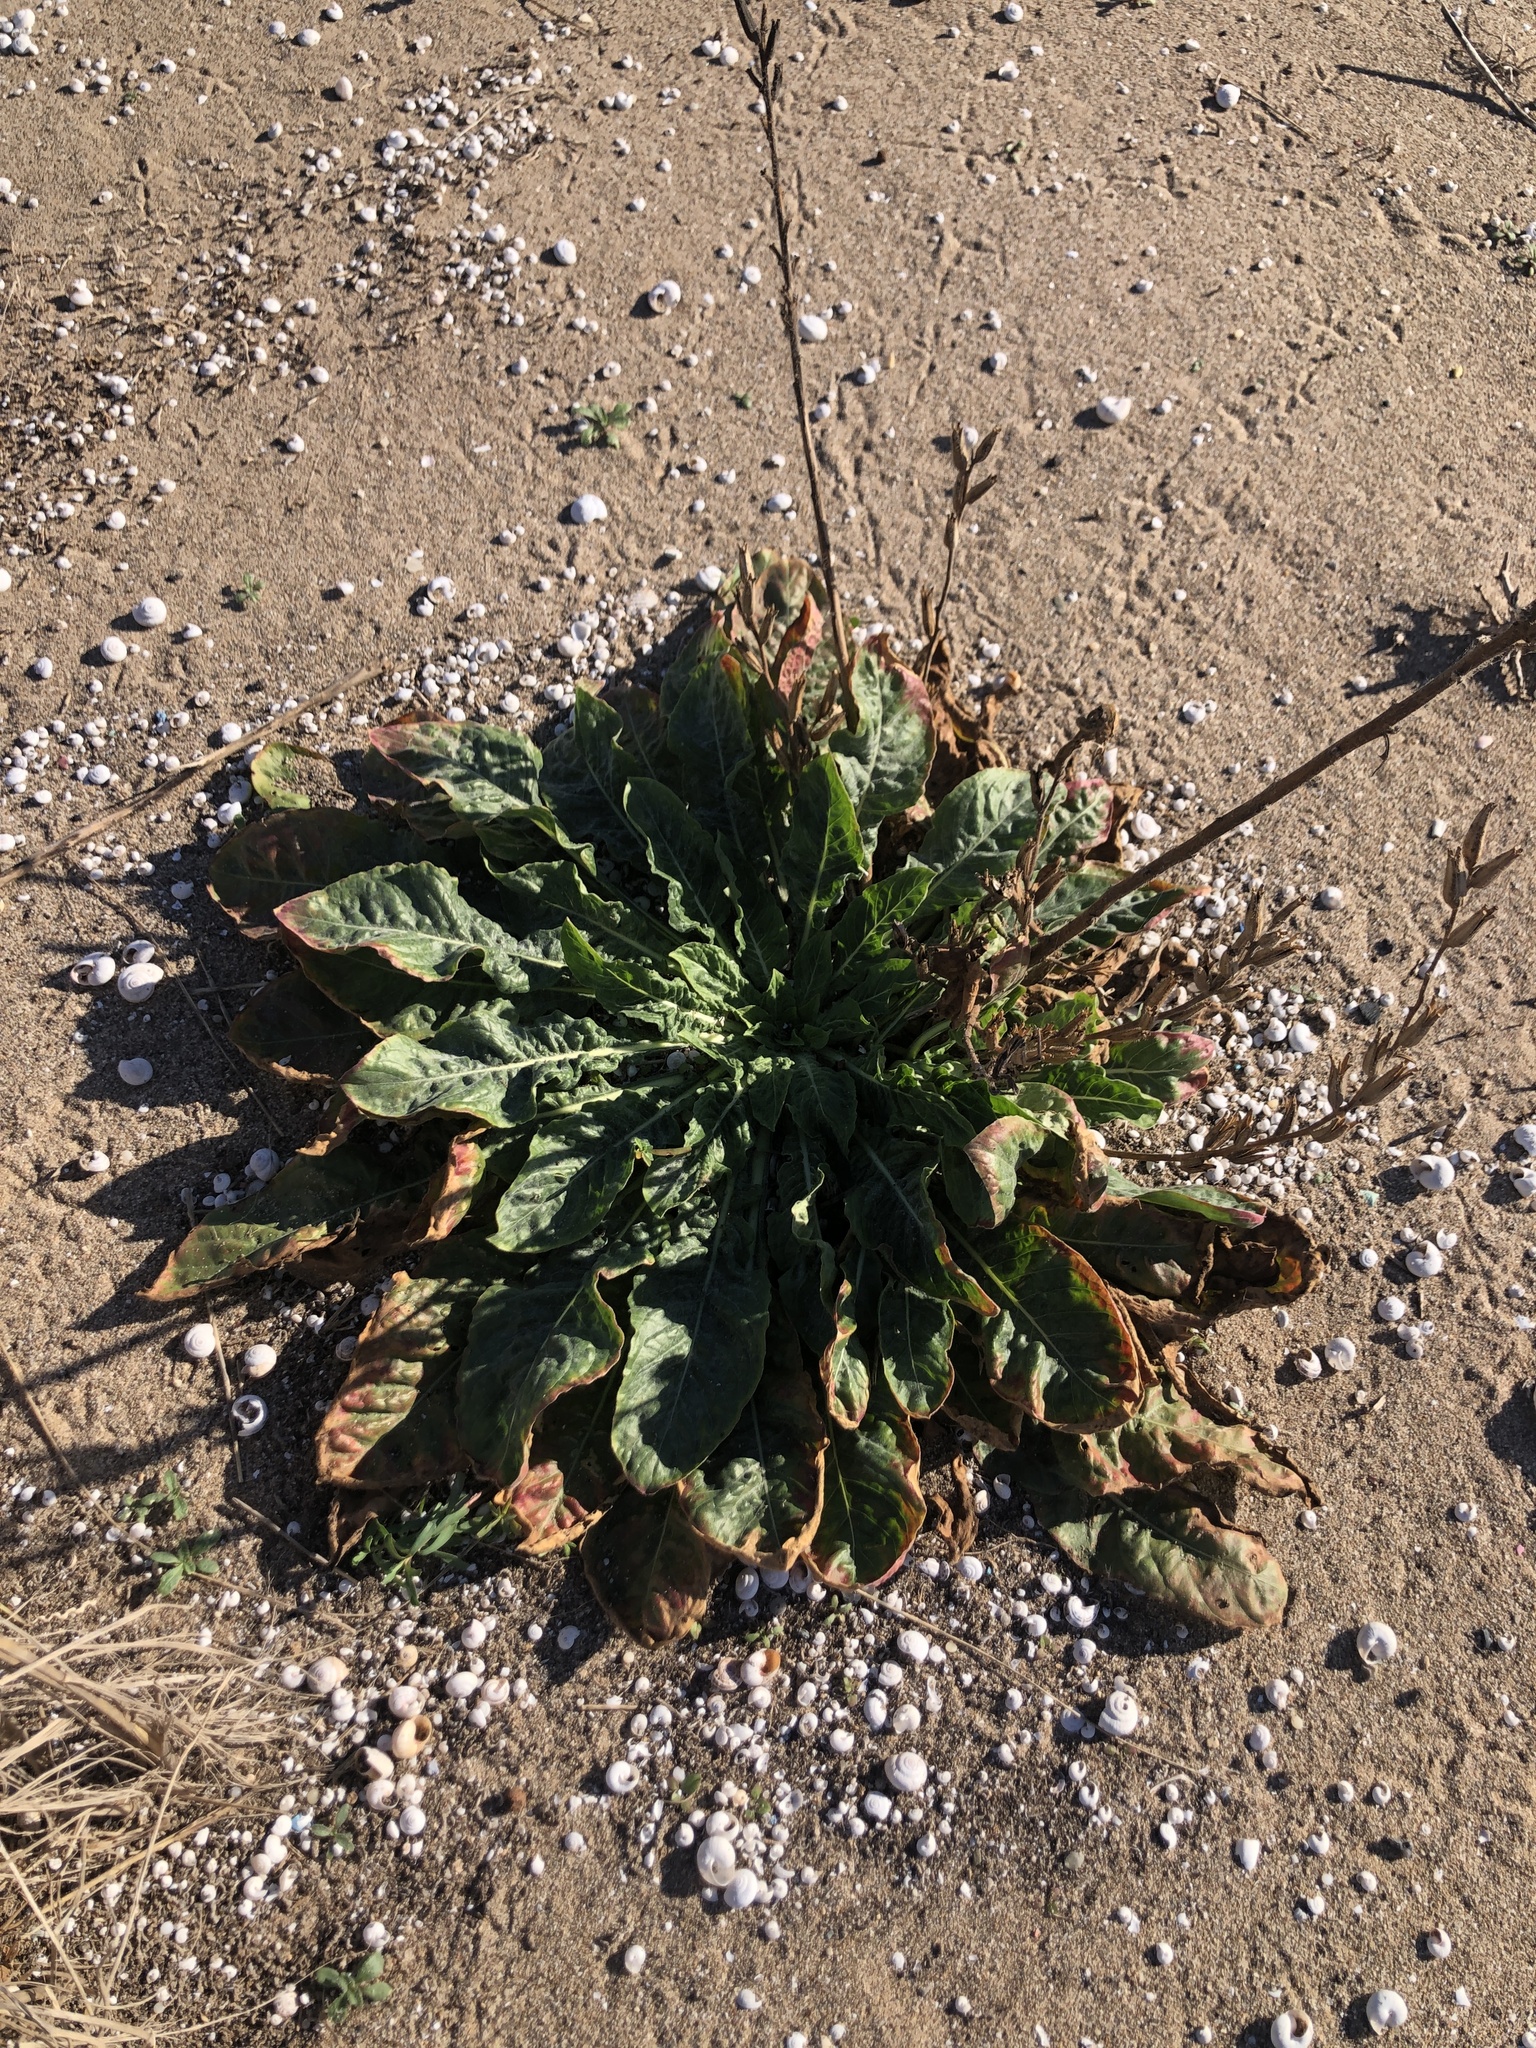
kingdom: Plantae
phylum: Tracheophyta
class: Magnoliopsida
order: Myrtales
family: Onagraceae
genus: Oenothera
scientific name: Oenothera glazioviana
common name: Large-flowered evening-primrose
